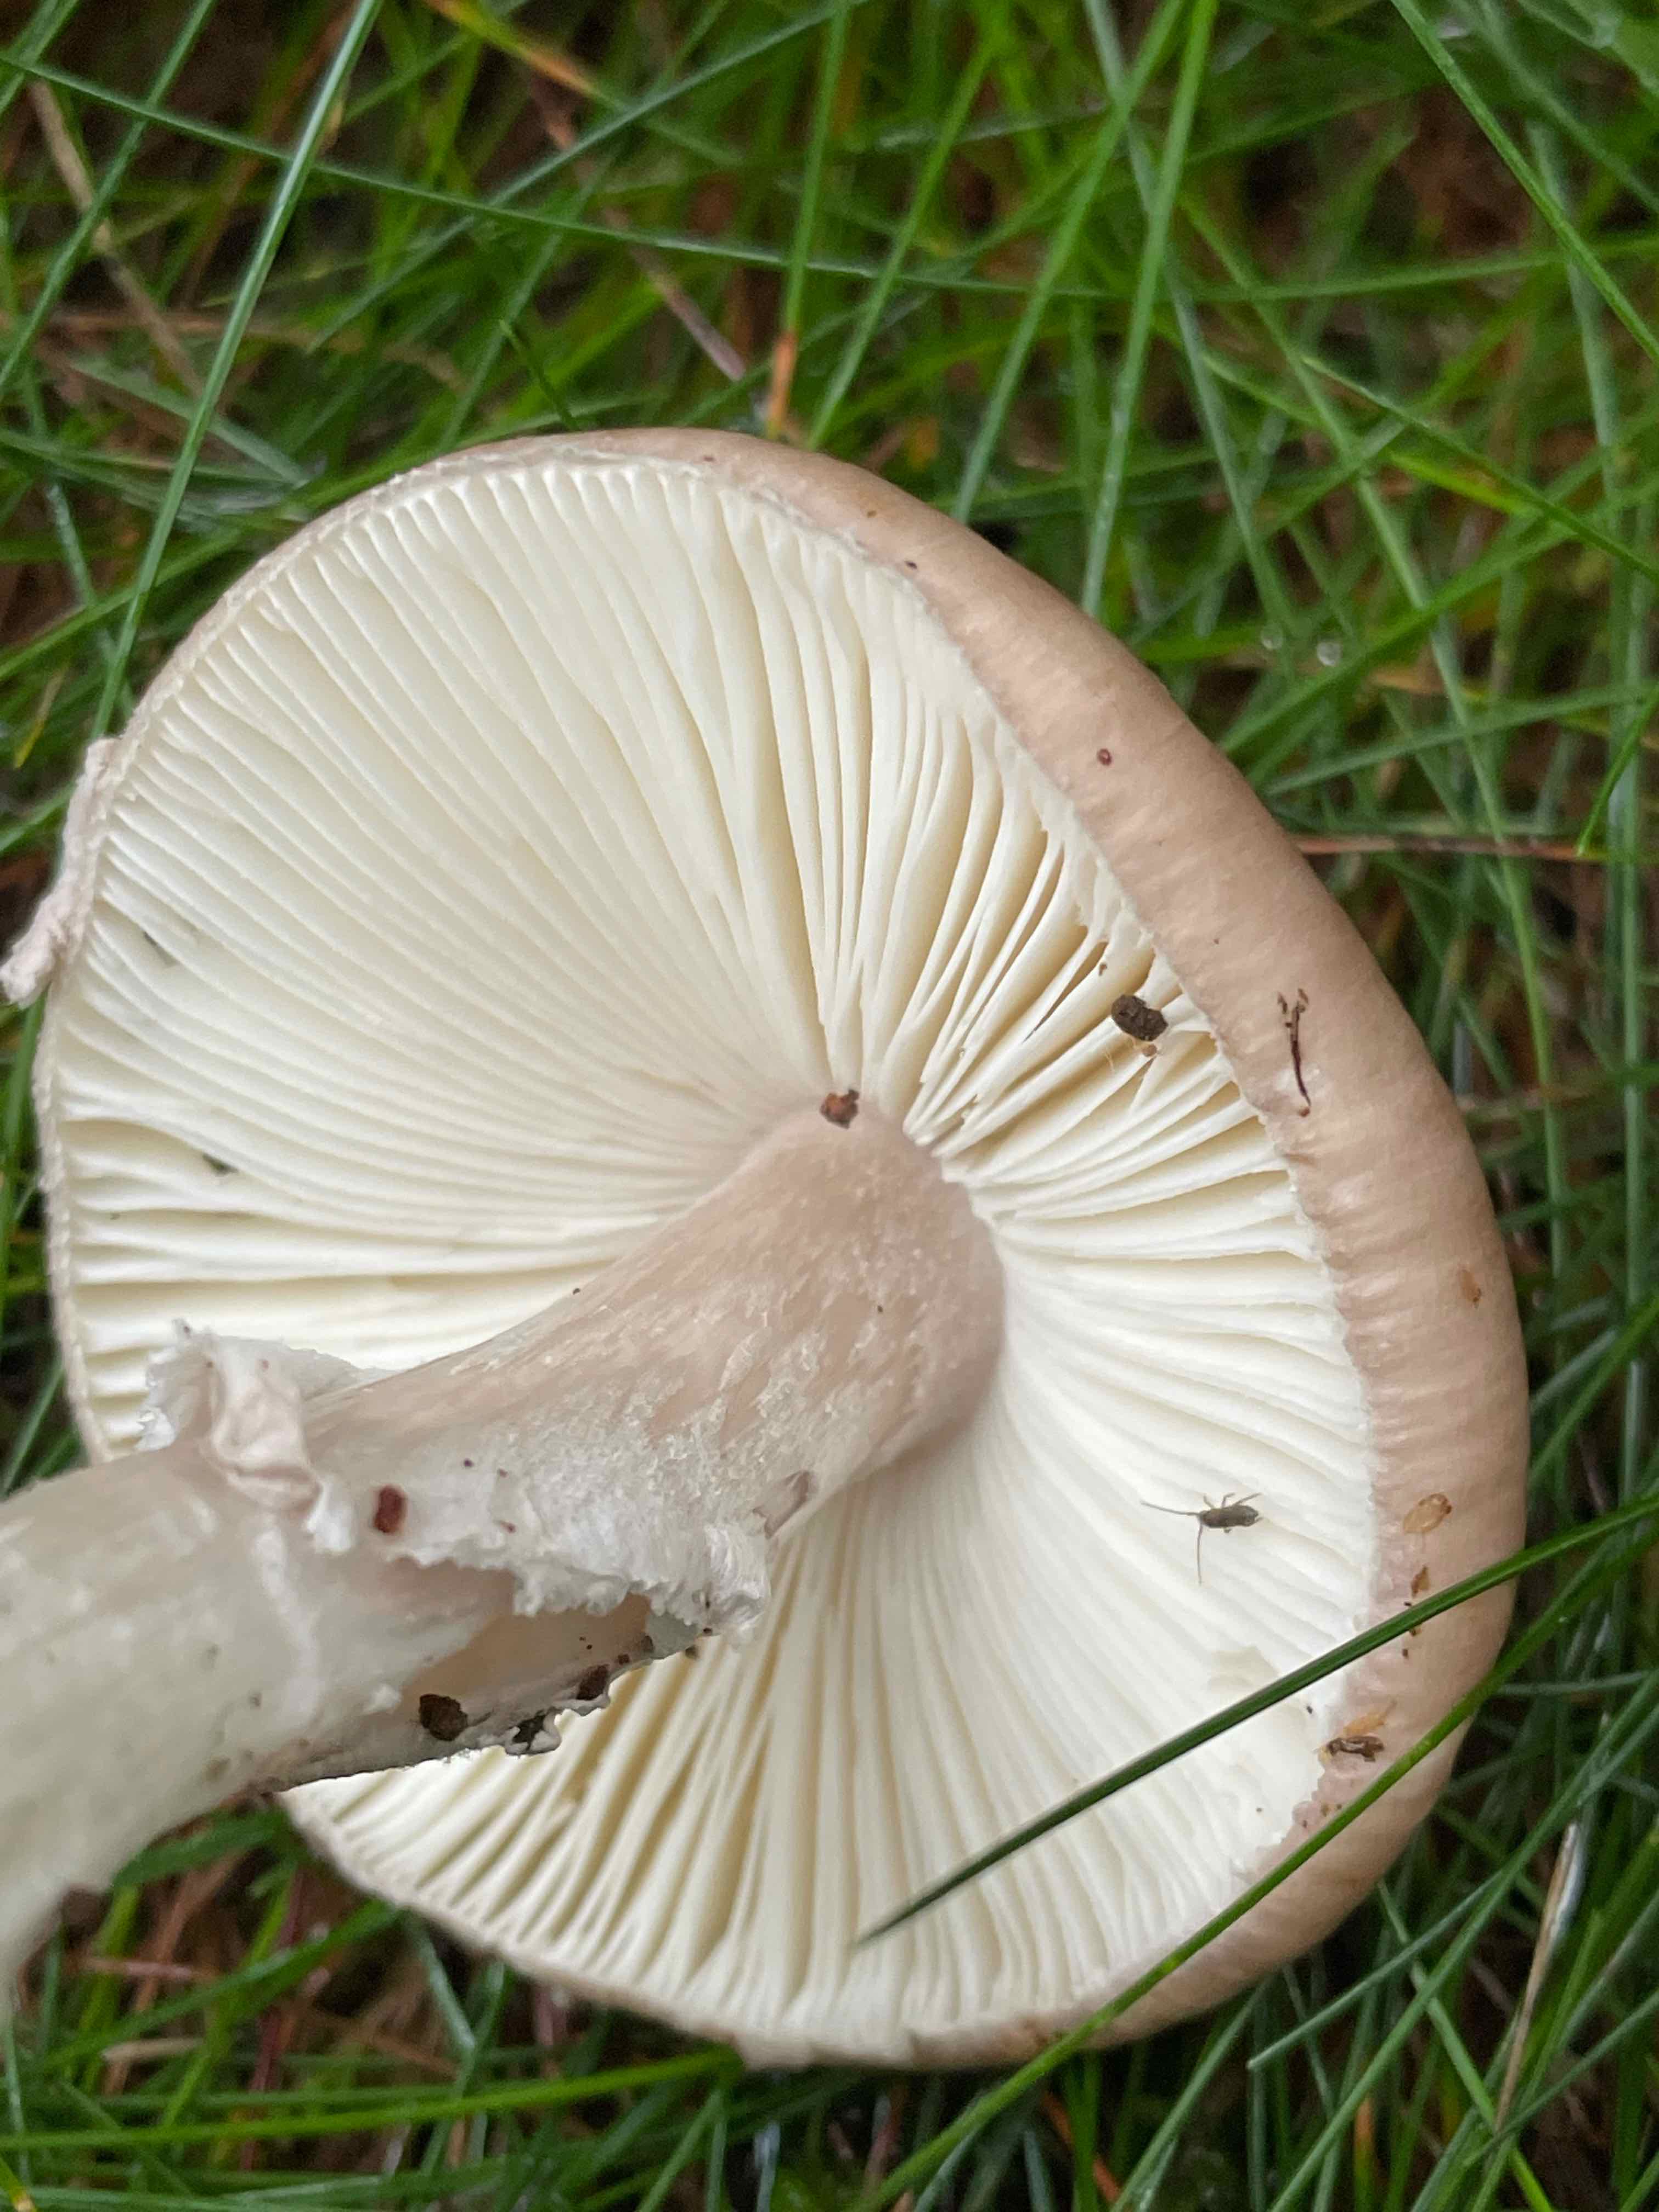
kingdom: Fungi
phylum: Basidiomycota
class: Agaricomycetes
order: Agaricales
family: Amanitaceae
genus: Amanita
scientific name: Amanita porphyria
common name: porfyr-fluesvamp
